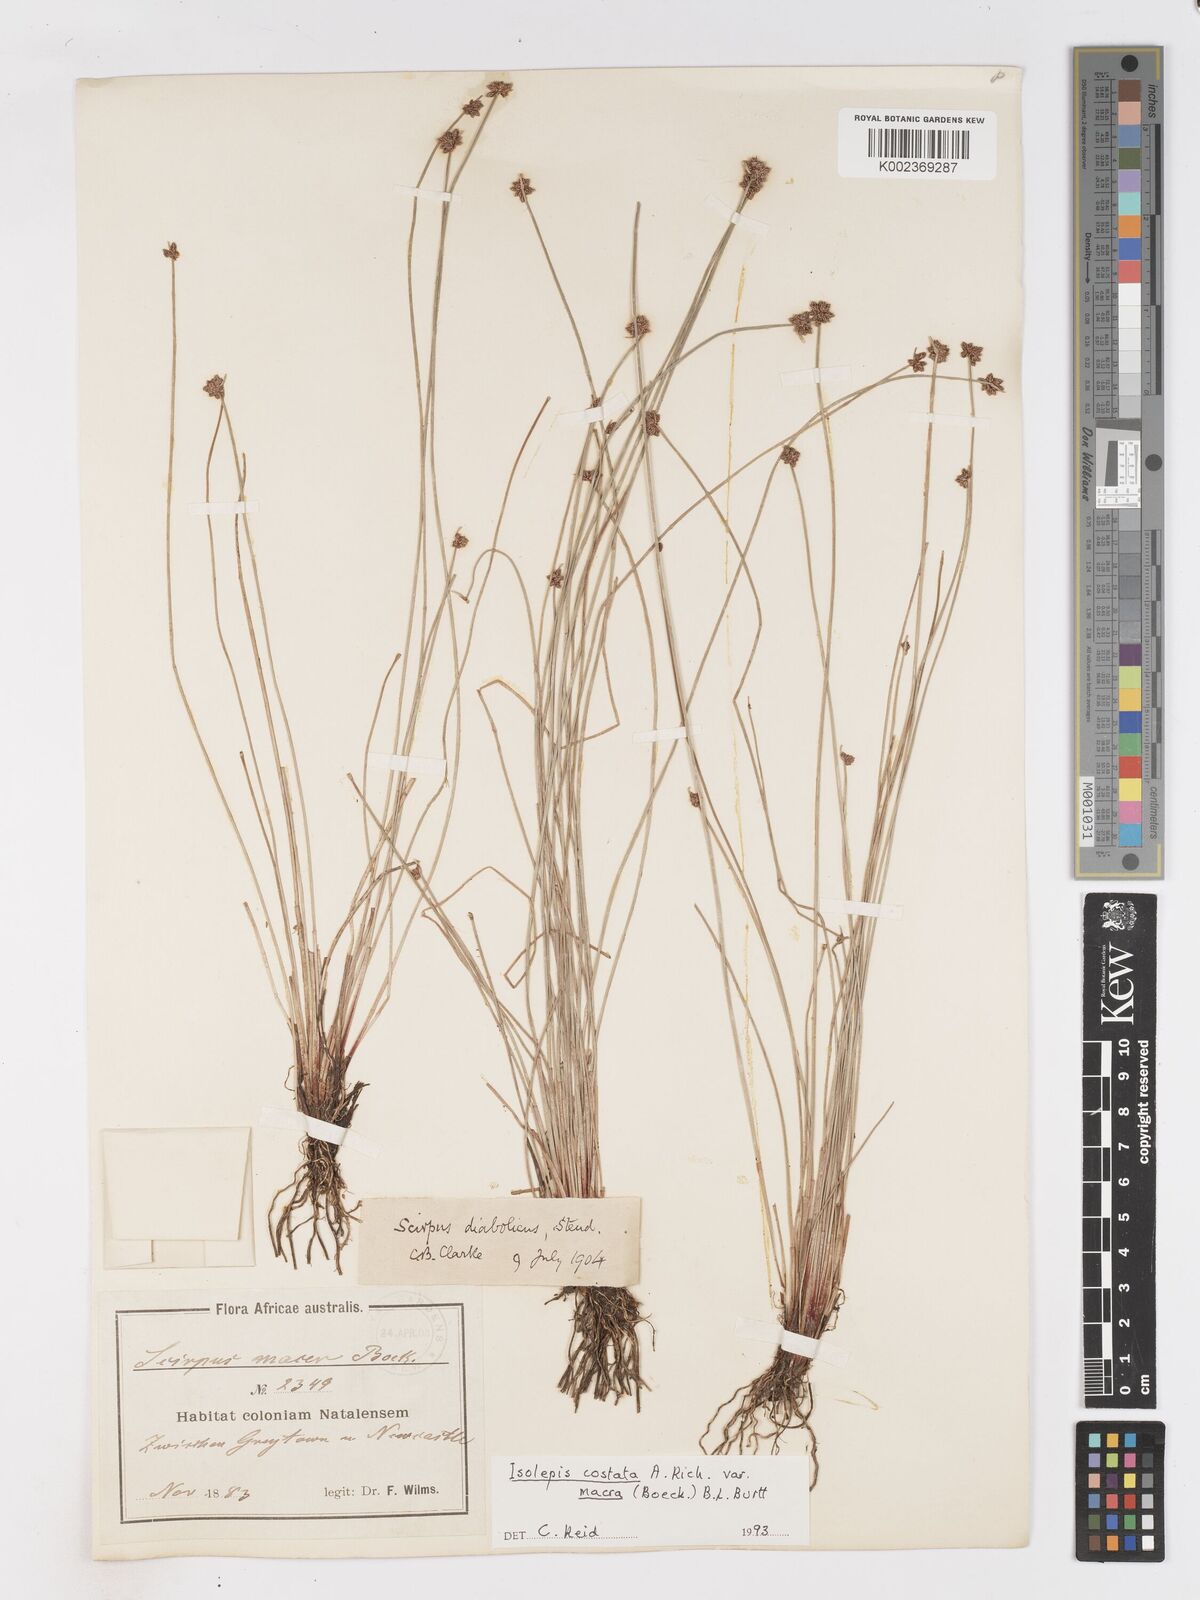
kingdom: Plantae
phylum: Tracheophyta
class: Liliopsida
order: Poales
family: Cyperaceae
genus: Isolepis
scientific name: Isolepis costata
